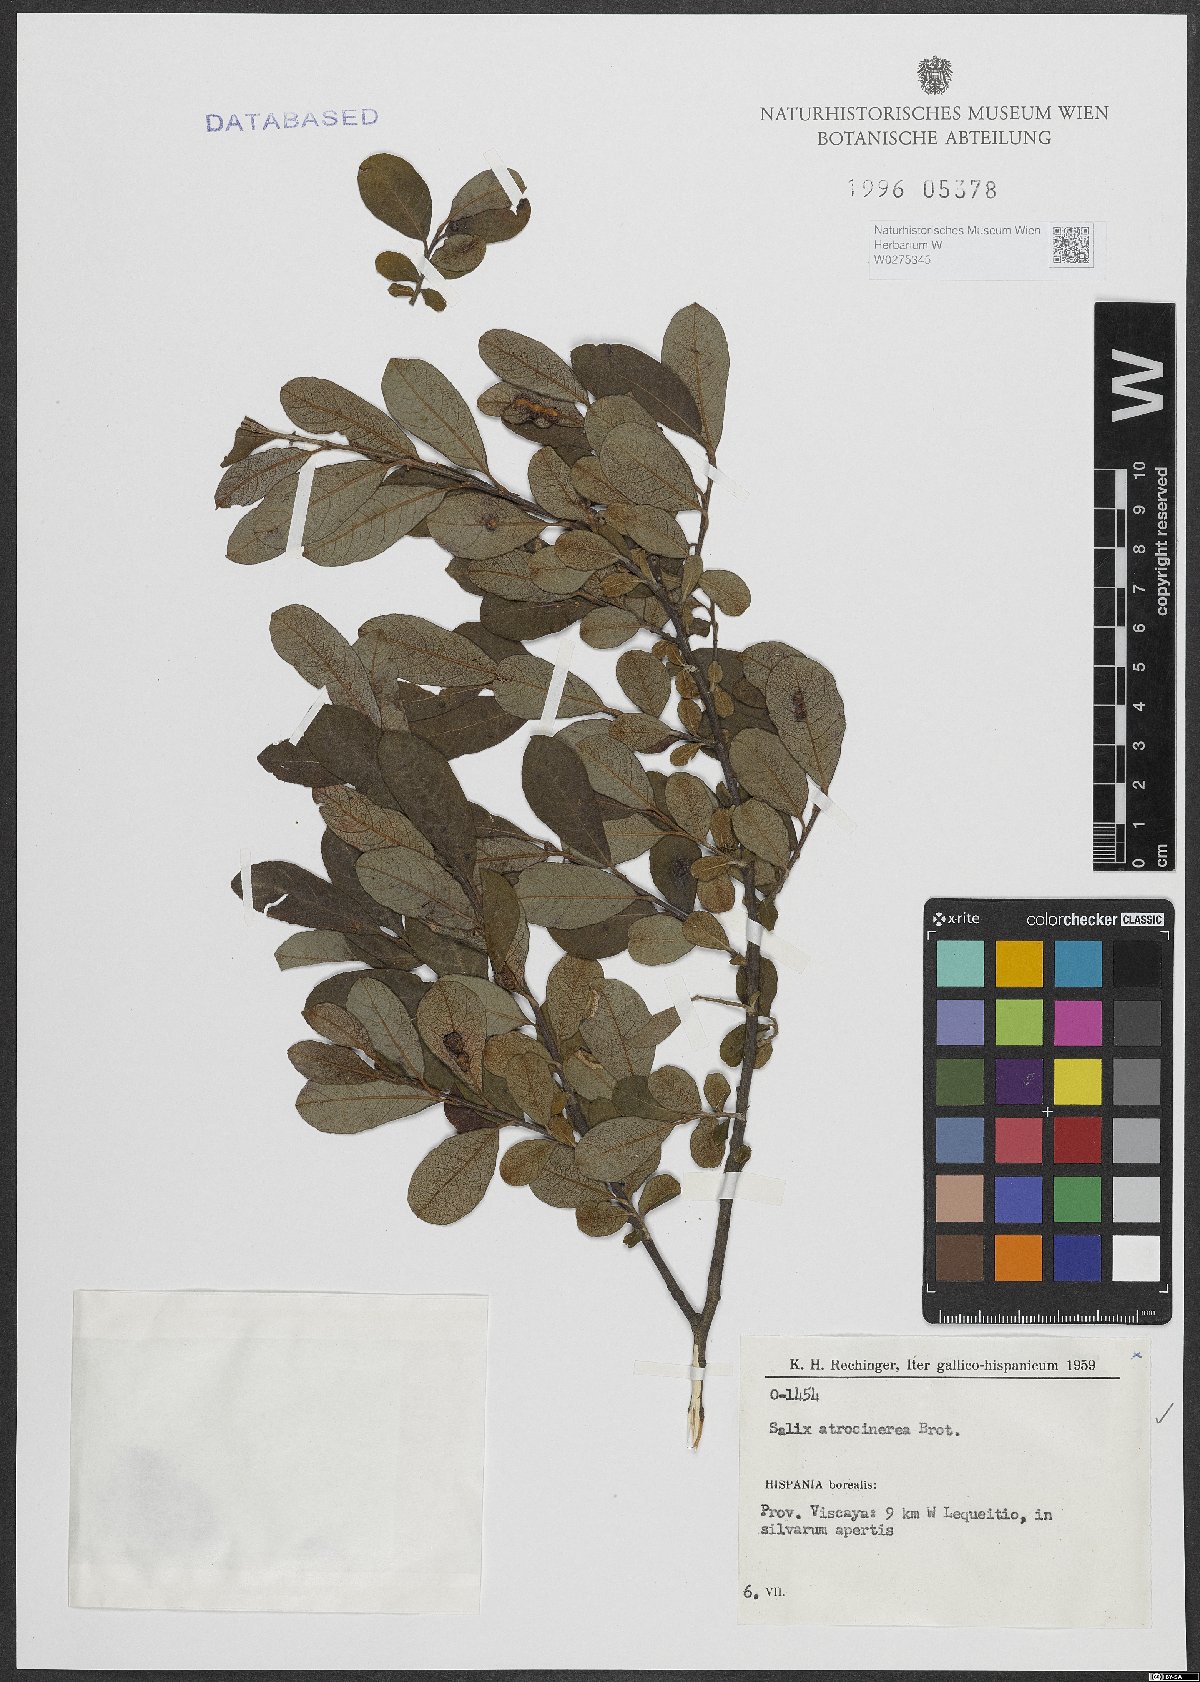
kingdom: Plantae
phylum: Tracheophyta
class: Magnoliopsida
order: Malpighiales
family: Salicaceae
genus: Salix
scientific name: Salix atrocinerea
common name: Rusty willow
